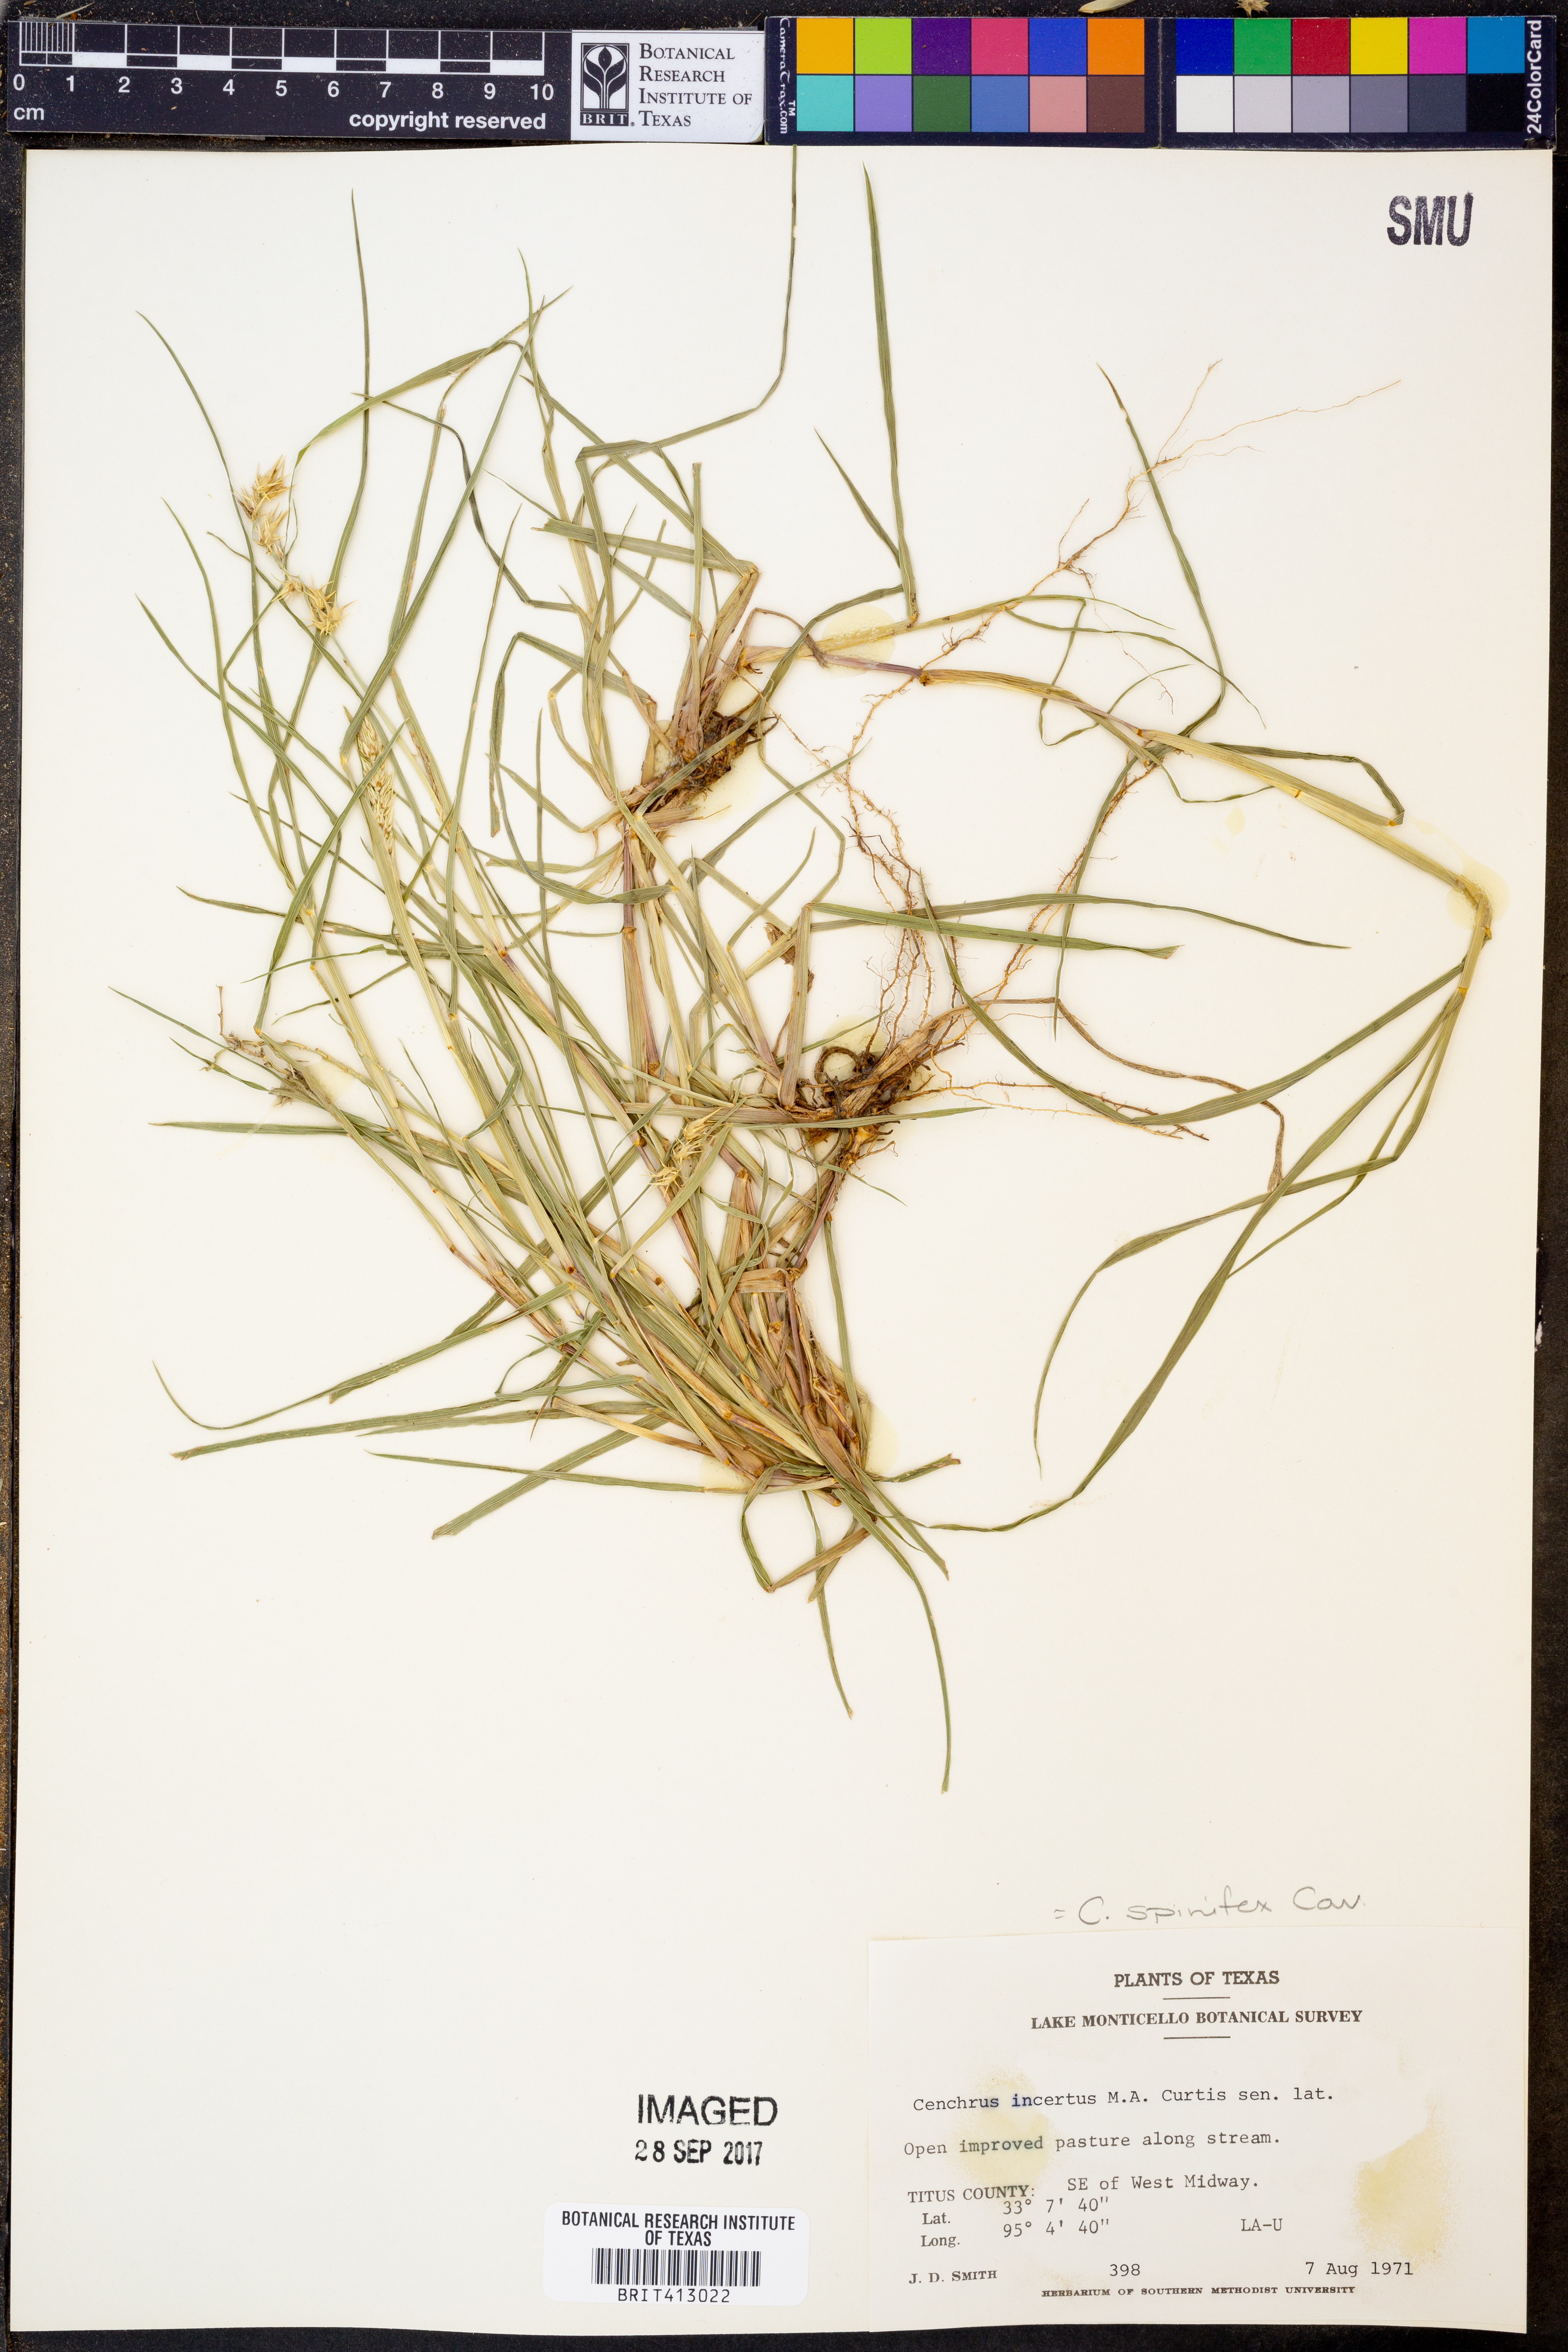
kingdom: Plantae
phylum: Tracheophyta
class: Liliopsida
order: Poales
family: Poaceae
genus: Cenchrus
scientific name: Cenchrus spinifex
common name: Coast sandbur
